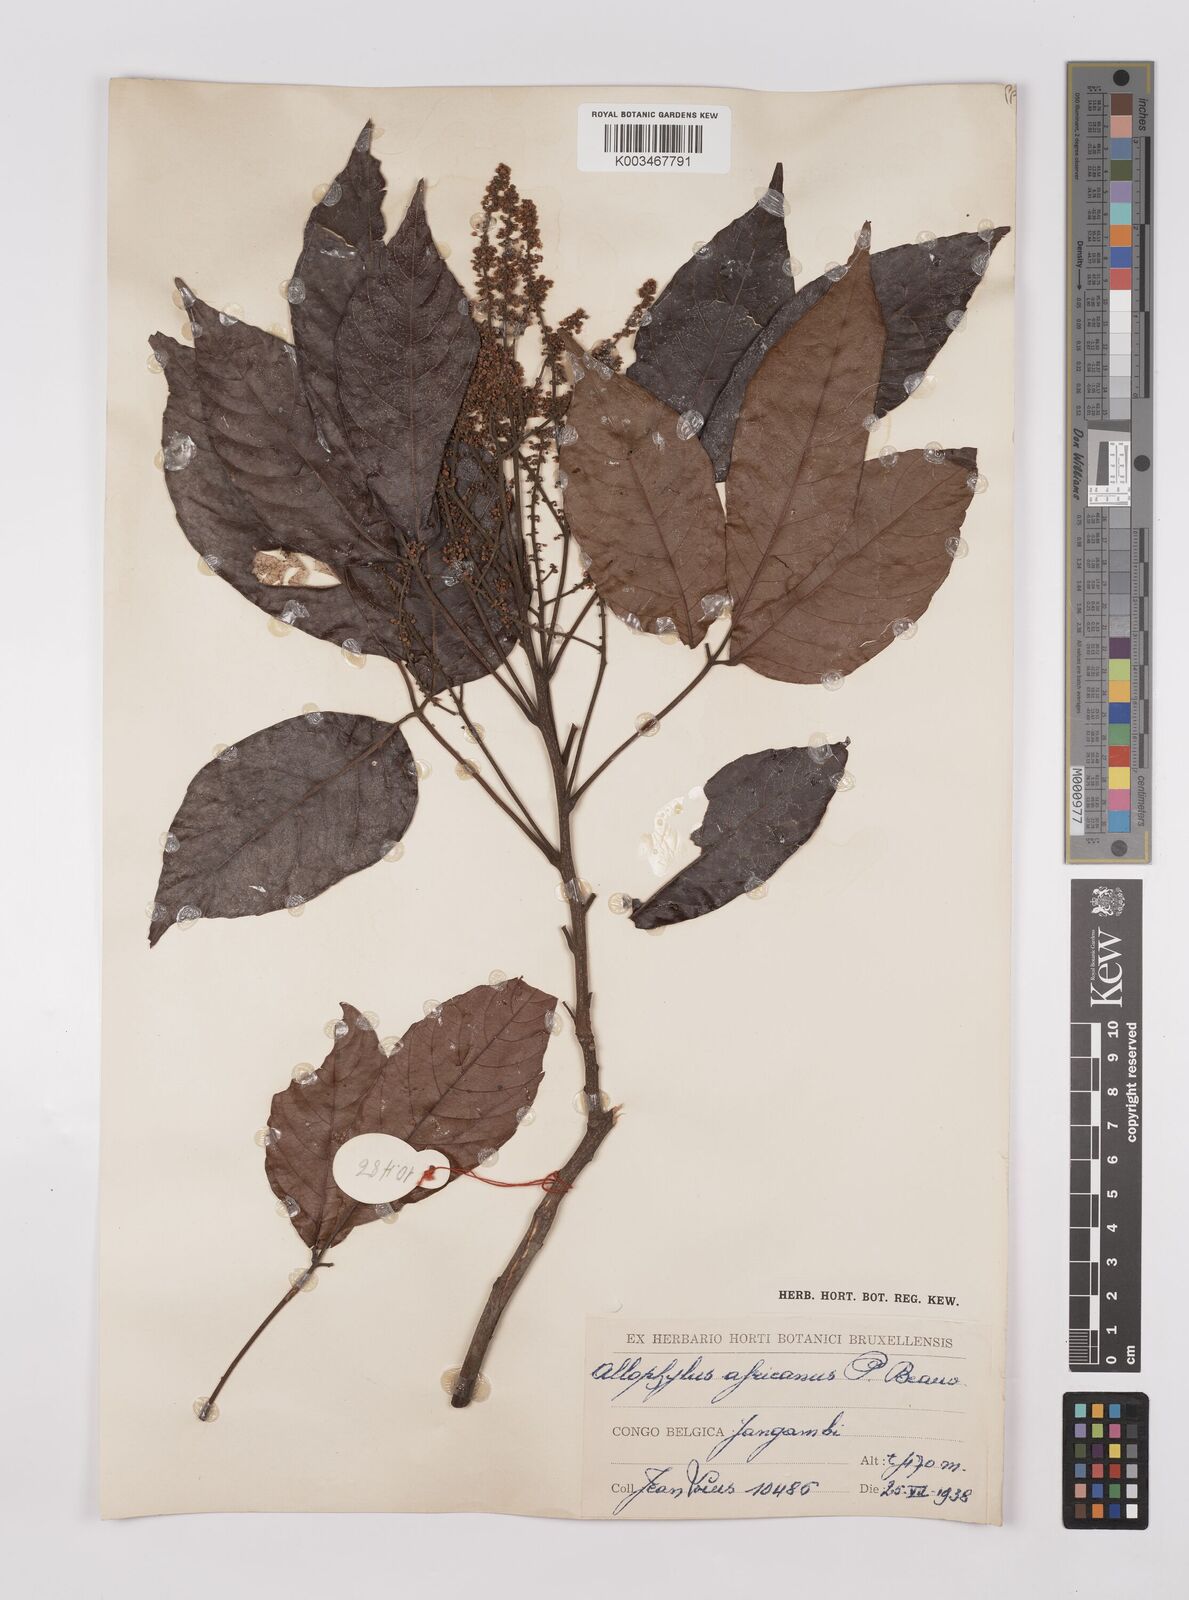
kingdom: Plantae
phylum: Tracheophyta
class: Magnoliopsida
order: Sapindales
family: Sapindaceae
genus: Allophylus
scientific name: Allophylus africanus
